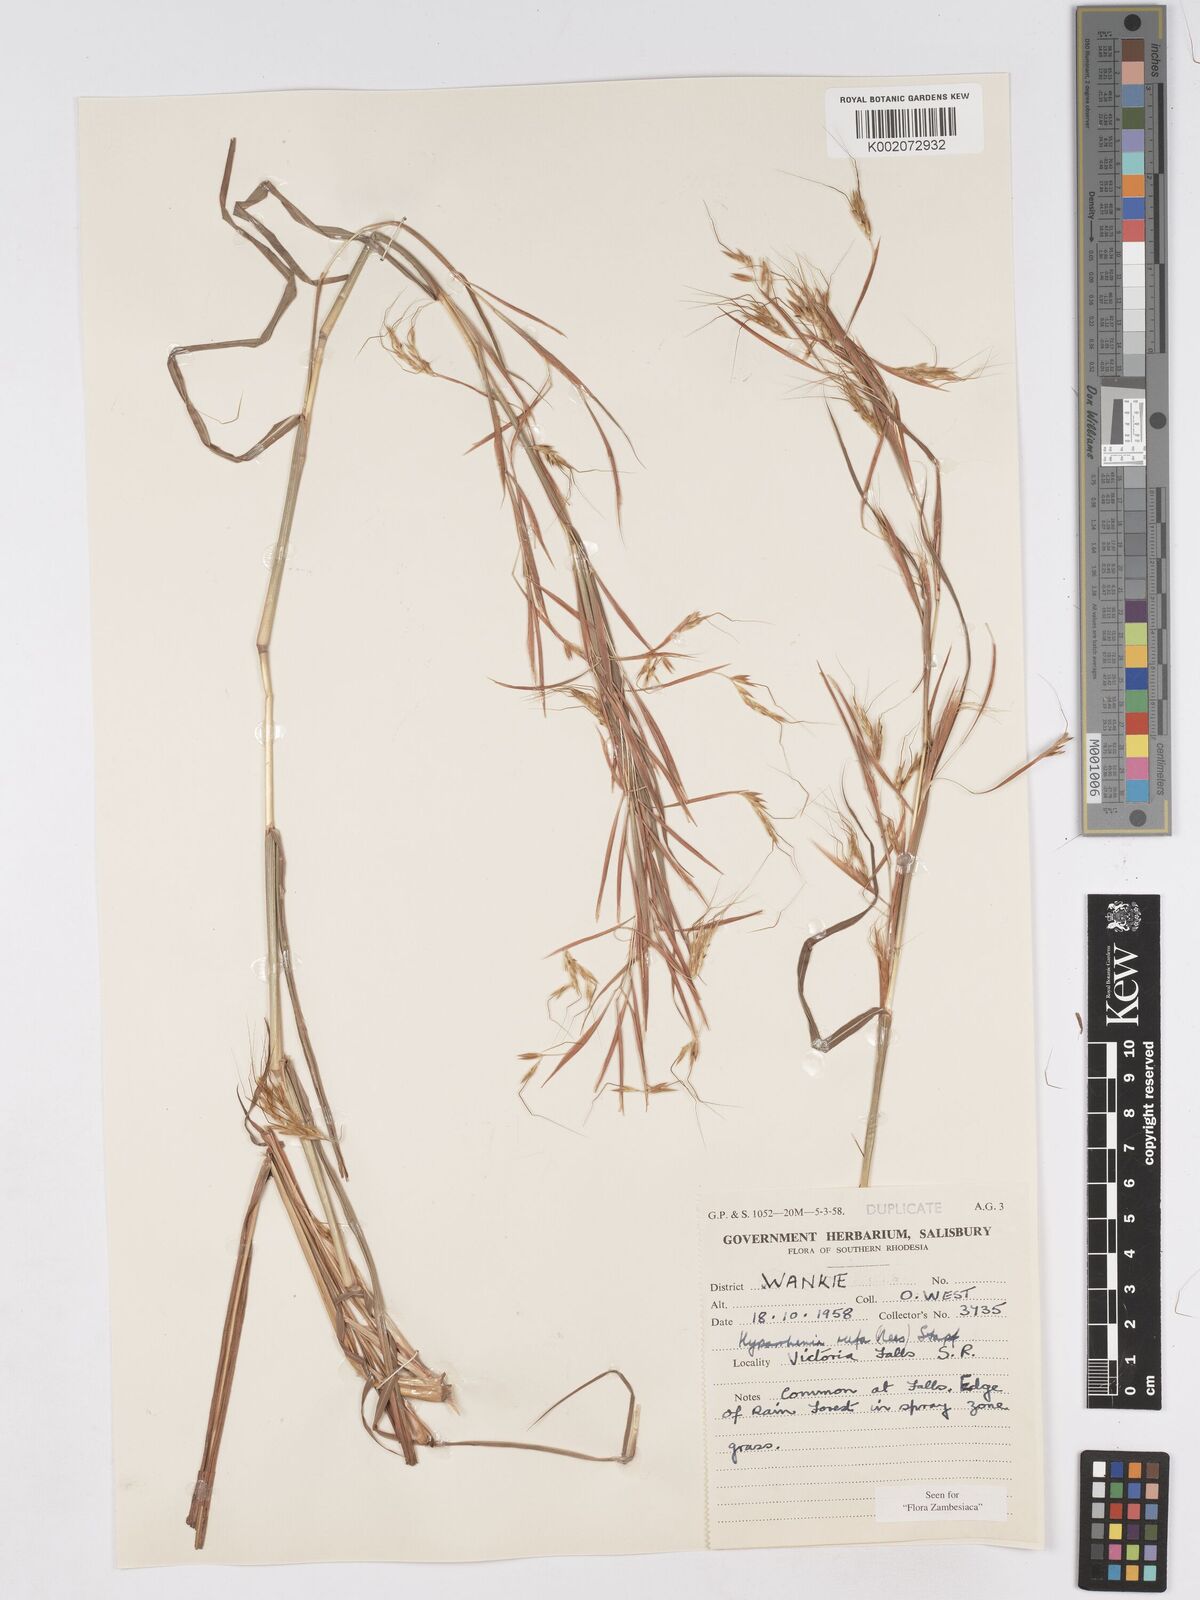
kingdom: Plantae
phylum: Tracheophyta
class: Liliopsida
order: Poales
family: Poaceae
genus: Hyparrhenia
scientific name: Hyparrhenia rufa
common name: Jaraguagrass
